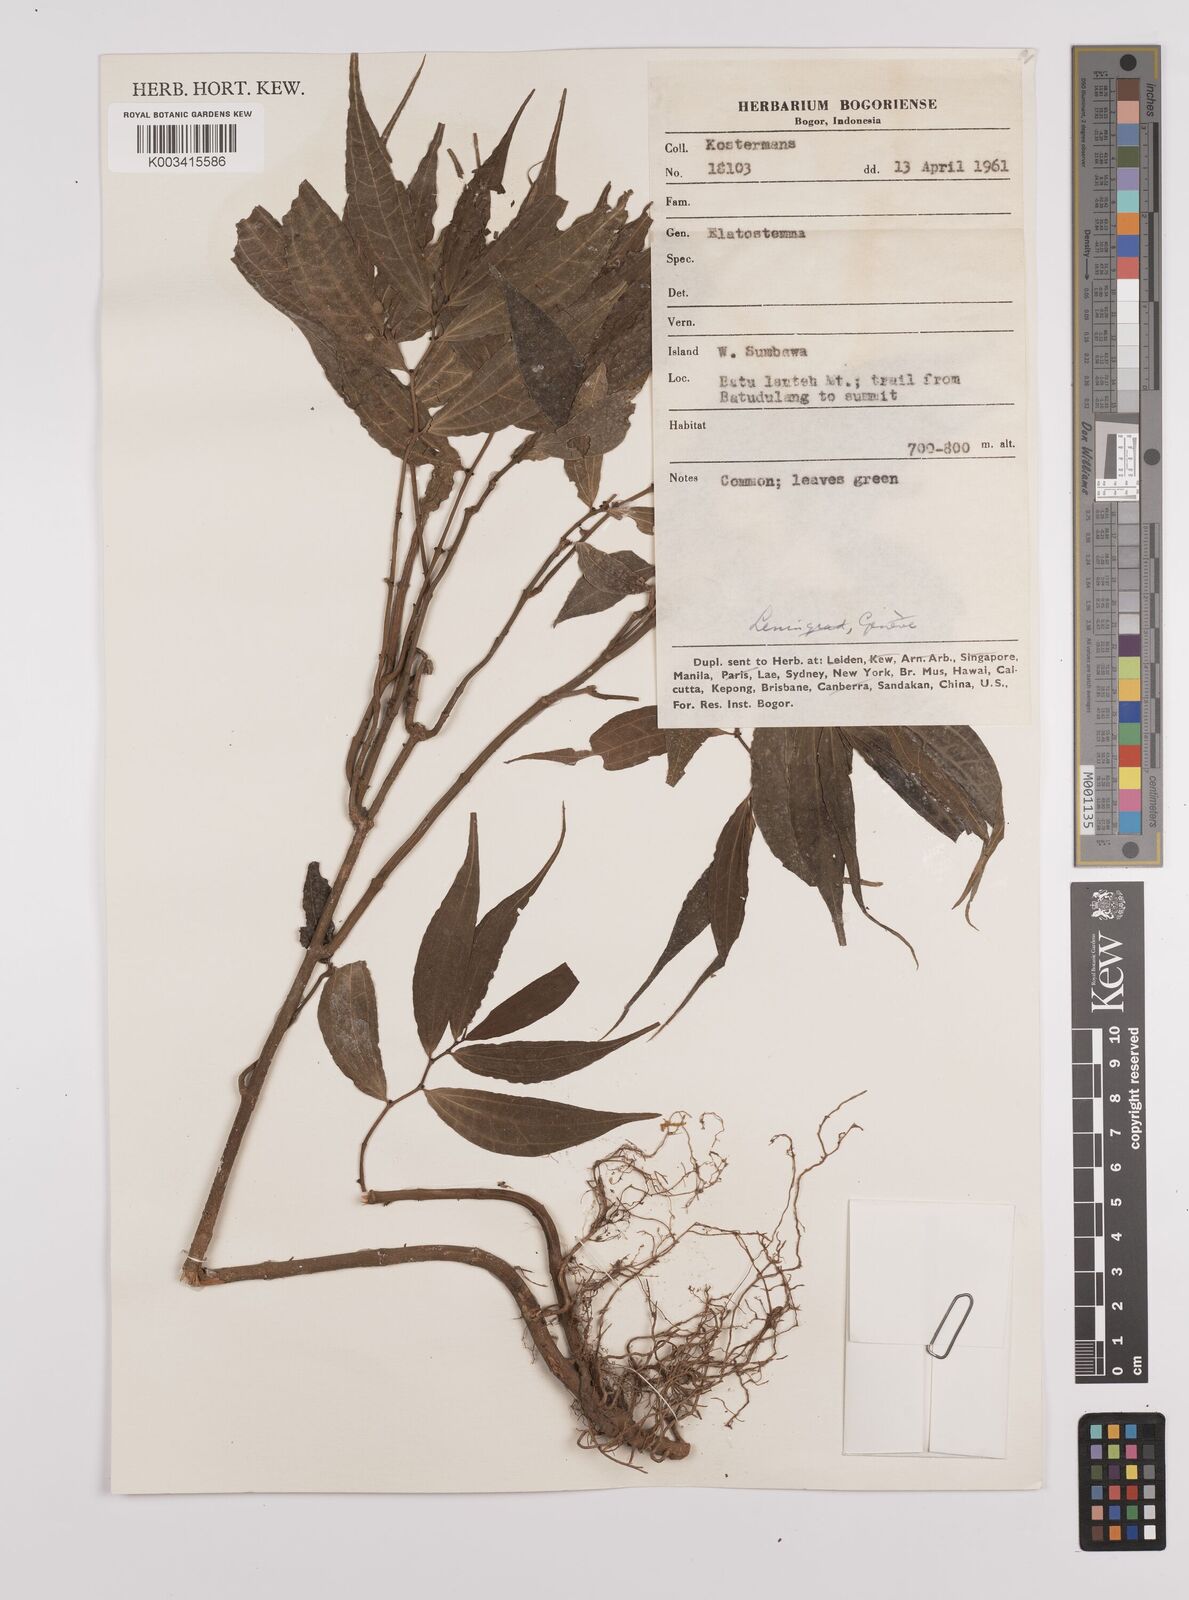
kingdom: Plantae
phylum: Tracheophyta
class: Magnoliopsida
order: Rosales
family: Urticaceae
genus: Elatostema
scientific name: Elatostema
